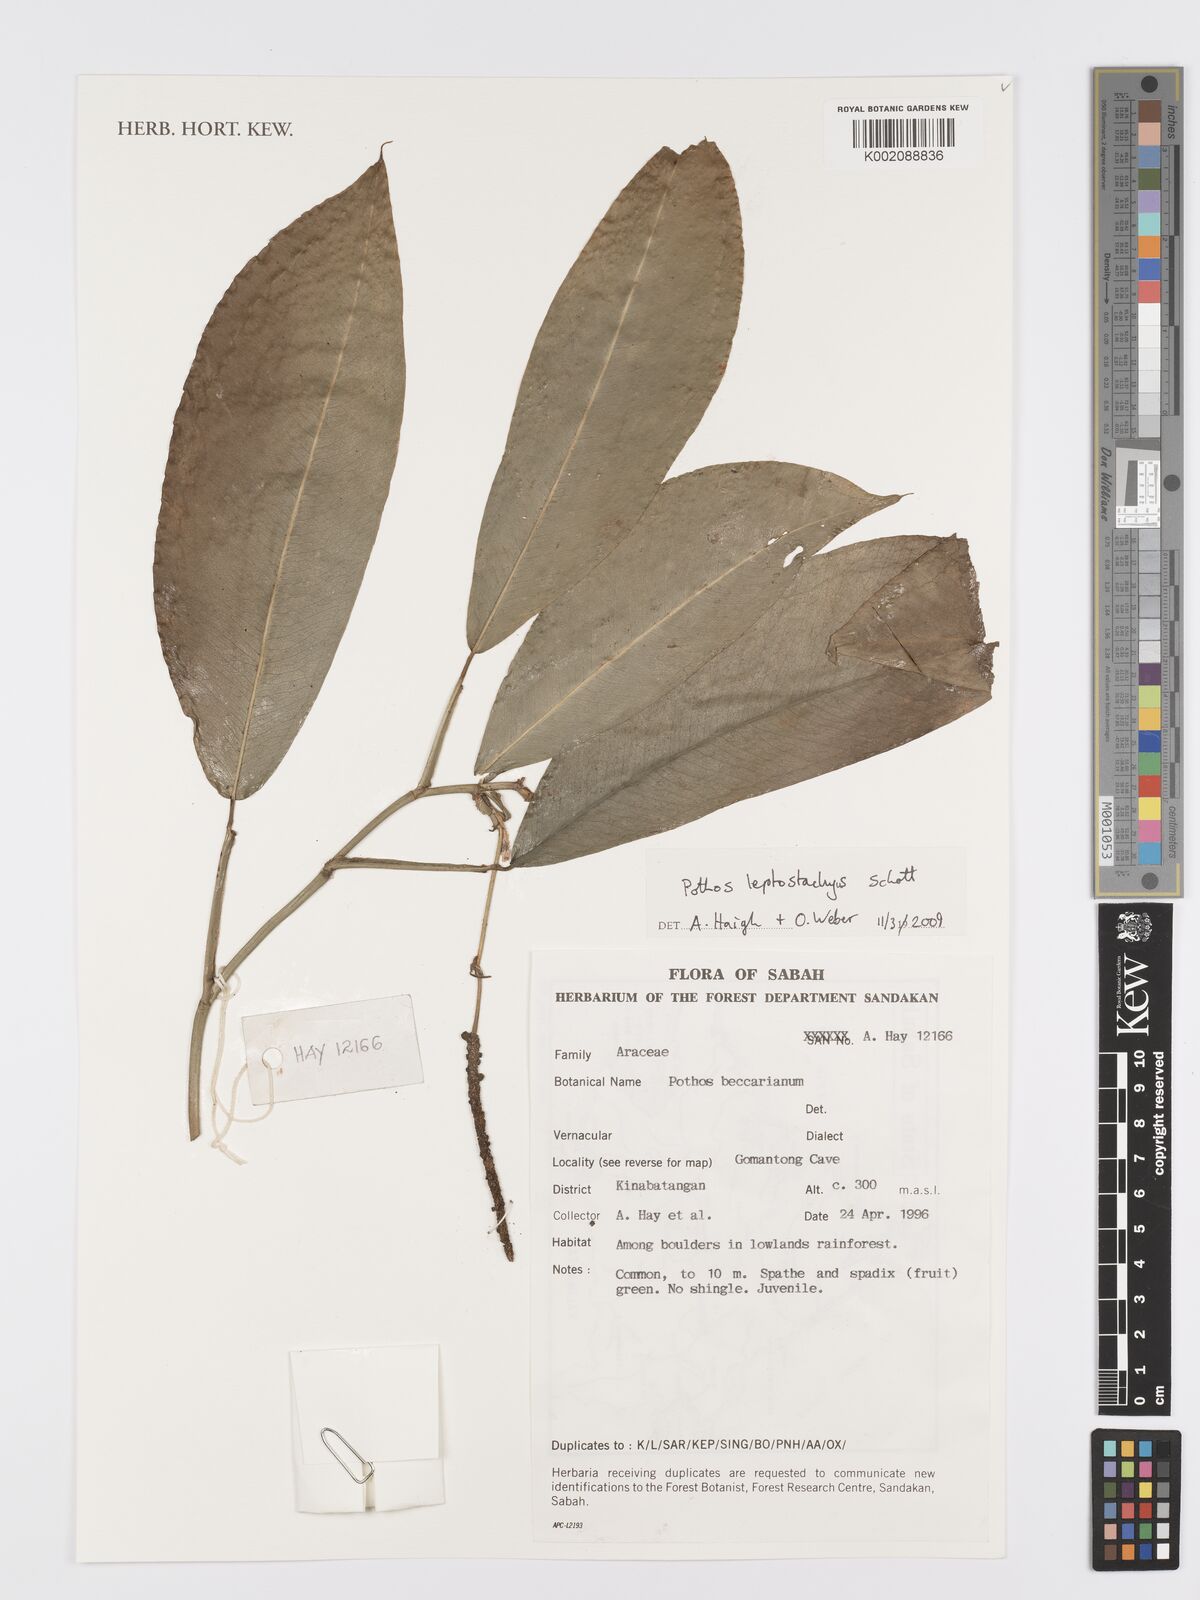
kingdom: Plantae
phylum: Tracheophyta
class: Liliopsida
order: Alismatales
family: Araceae
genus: Pothos
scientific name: Pothos leptostachyus
